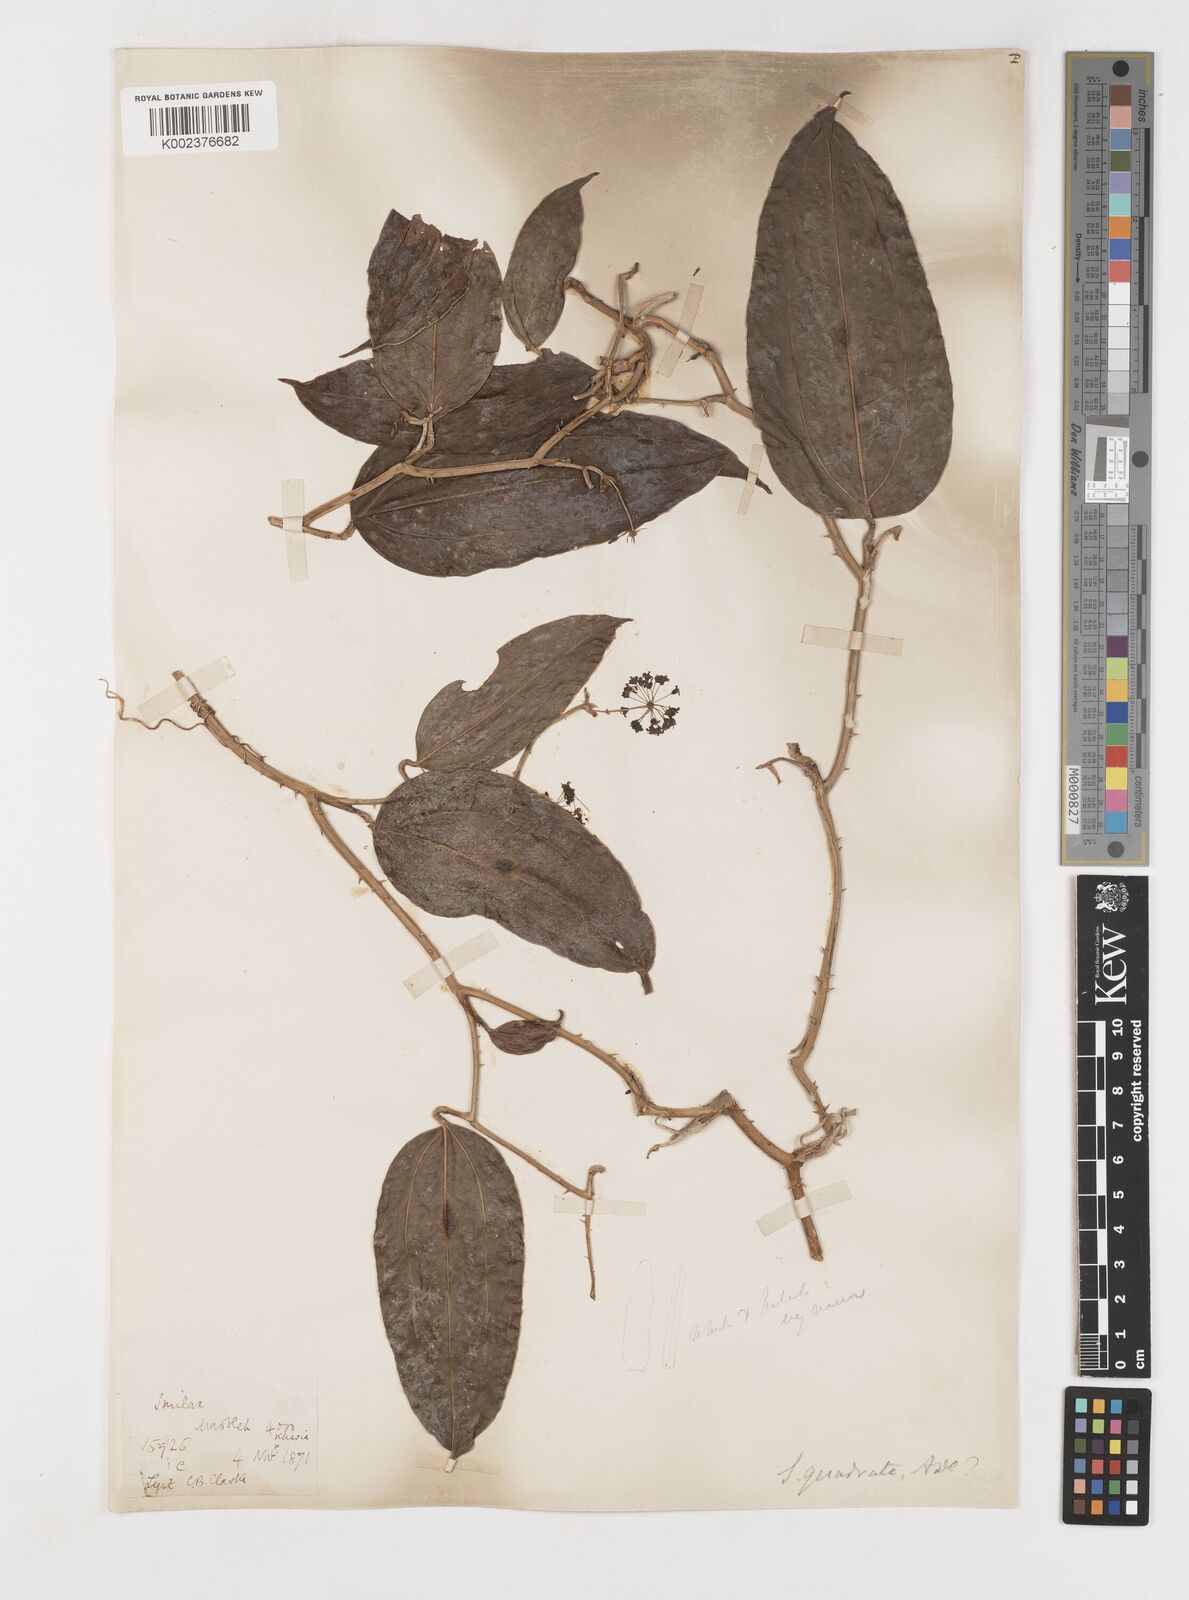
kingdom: Plantae
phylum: Tracheophyta
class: Liliopsida
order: Liliales
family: Smilacaceae
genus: Smilax
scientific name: Smilax quadrata
